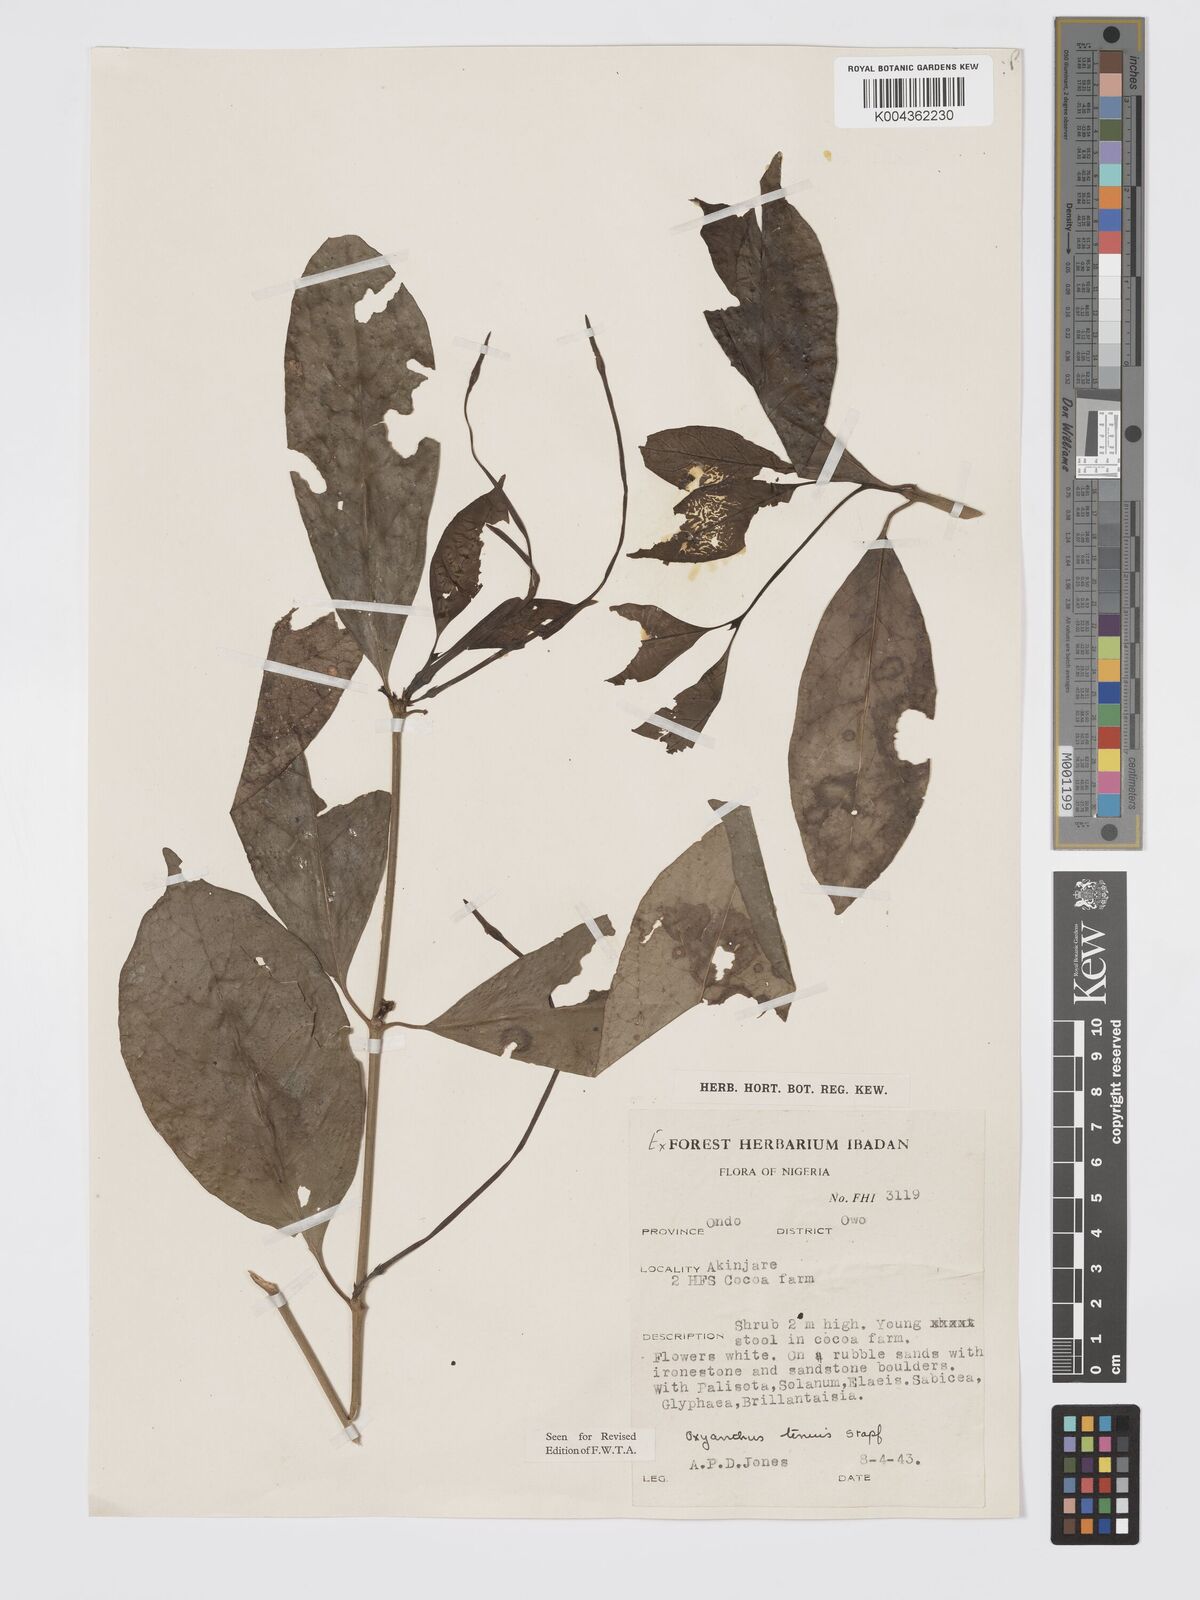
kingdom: Plantae
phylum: Tracheophyta
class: Magnoliopsida
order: Gentianales
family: Rubiaceae
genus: Oxyanthus
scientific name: Oxyanthus subpunctatus
